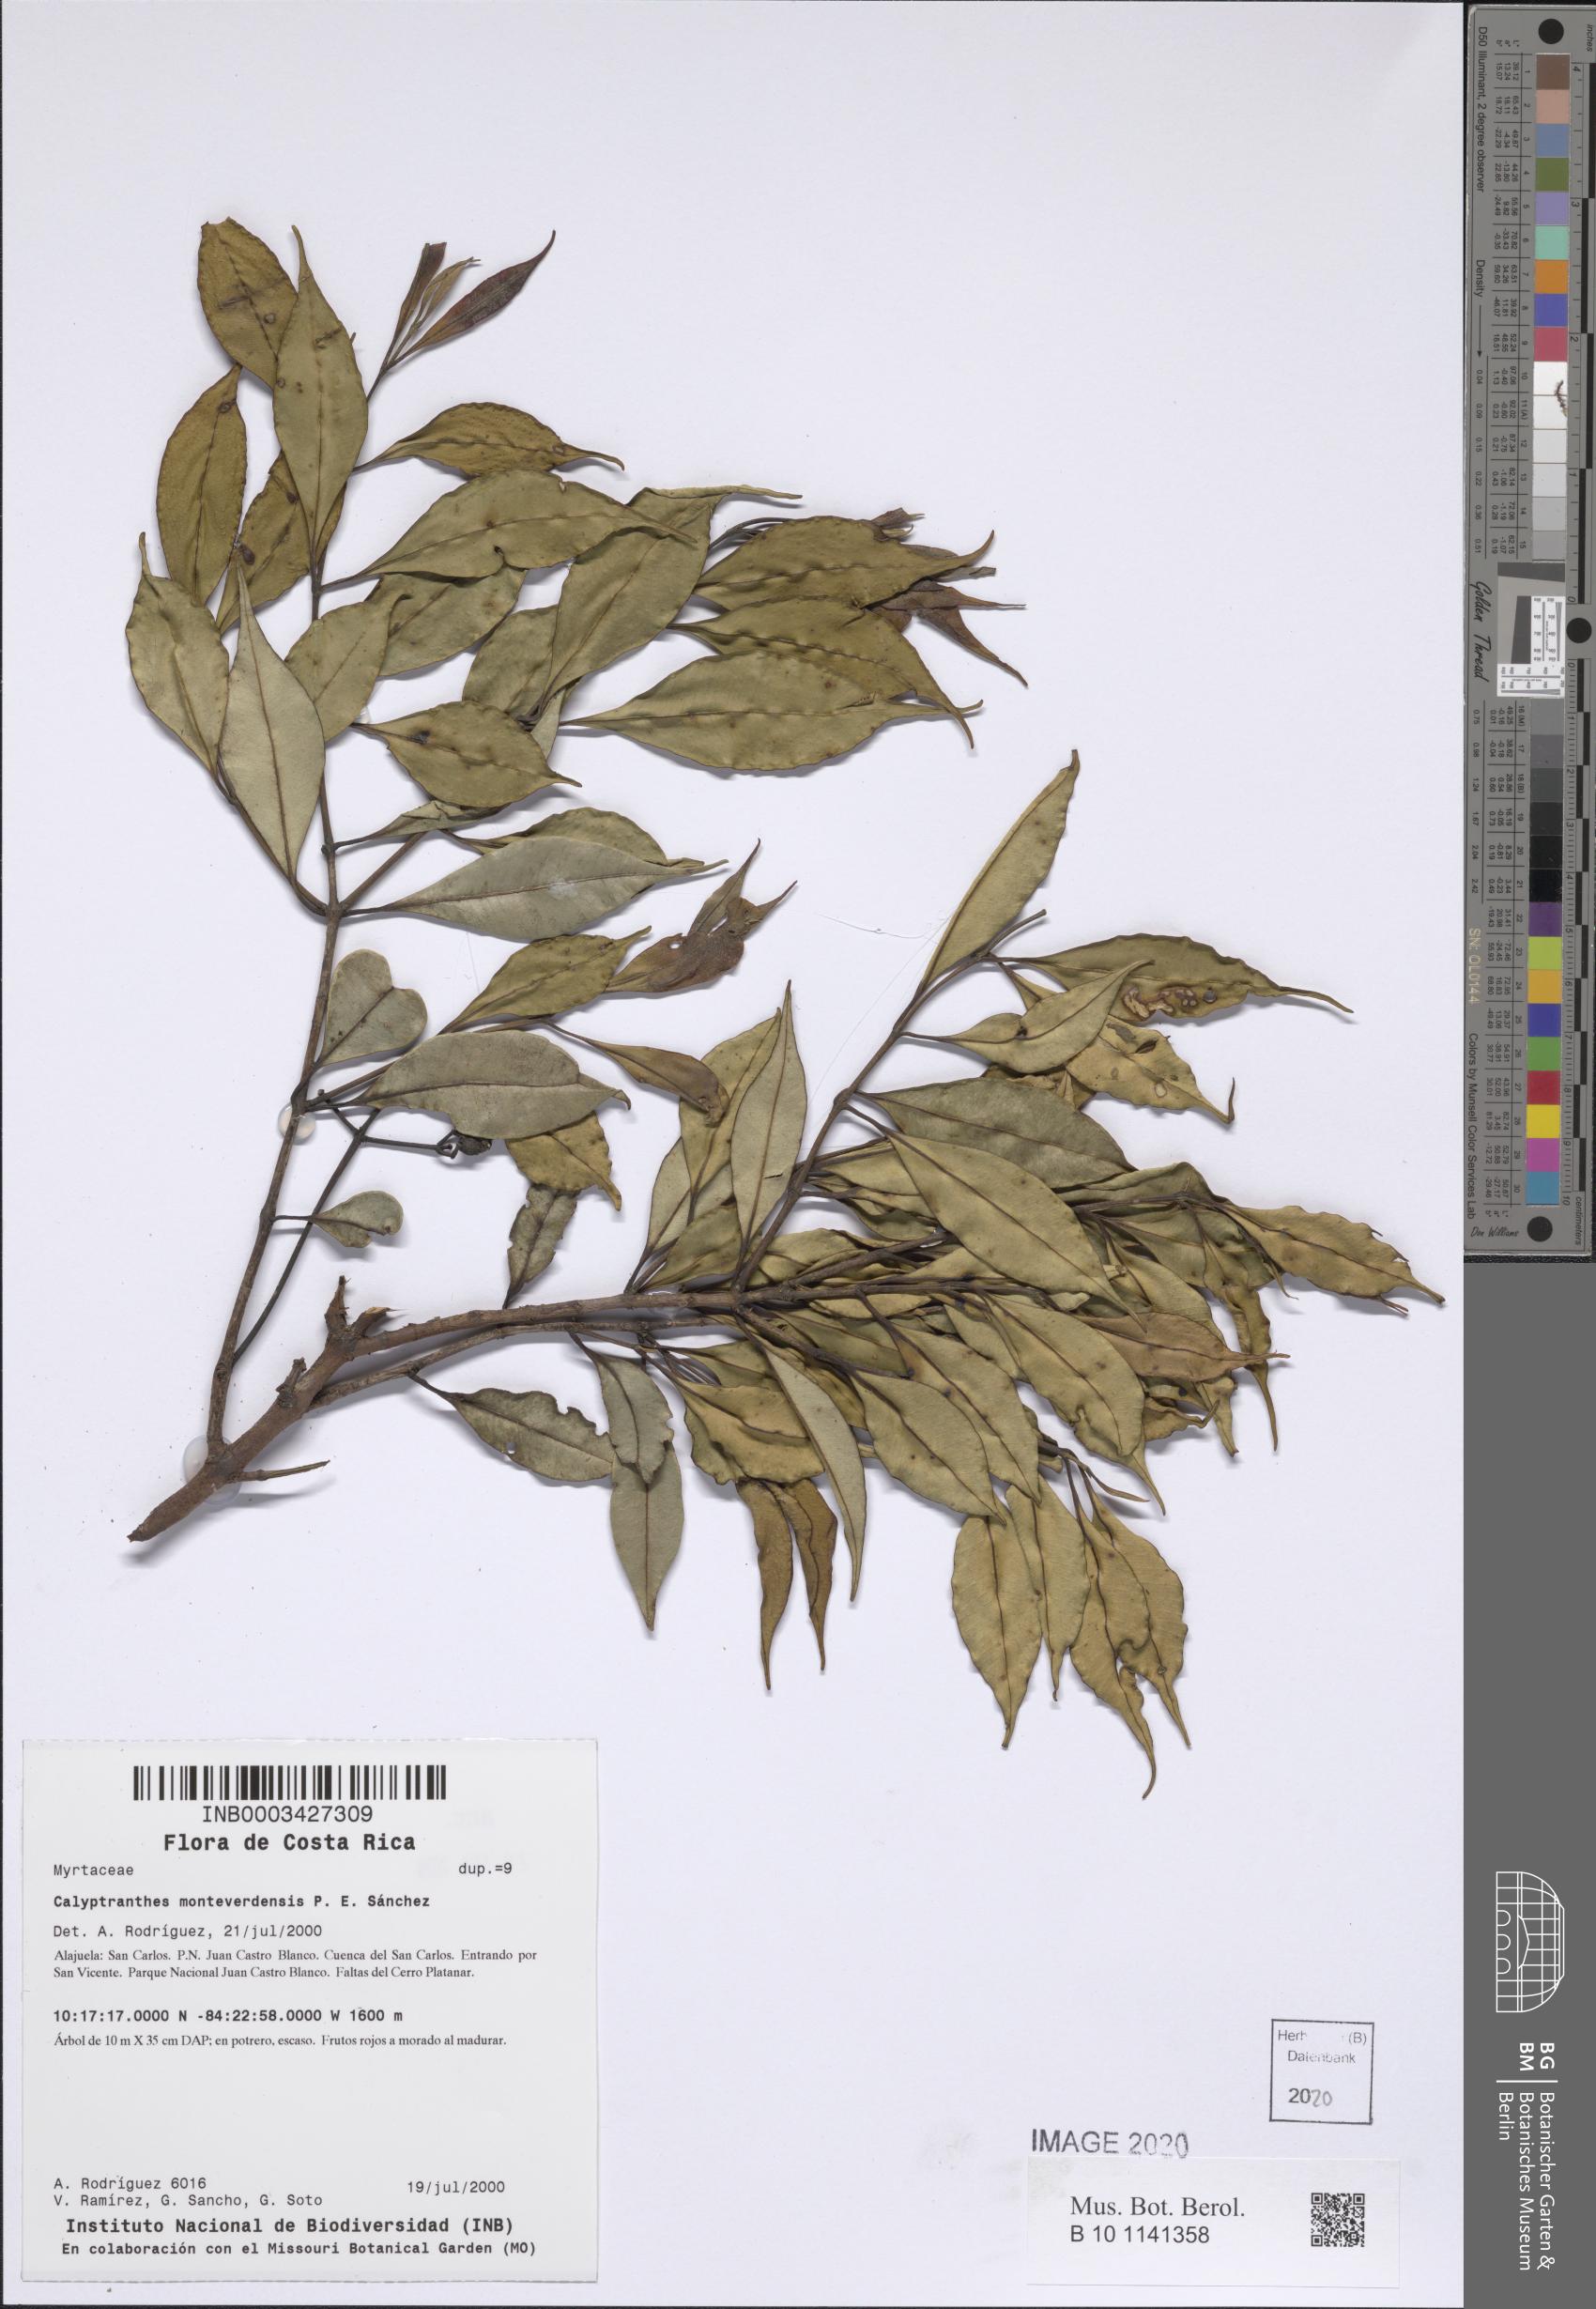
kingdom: Plantae
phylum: Tracheophyta
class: Magnoliopsida
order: Myrtales
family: Myrtaceae
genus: Myrcia
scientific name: Myrcia monteverdensis
